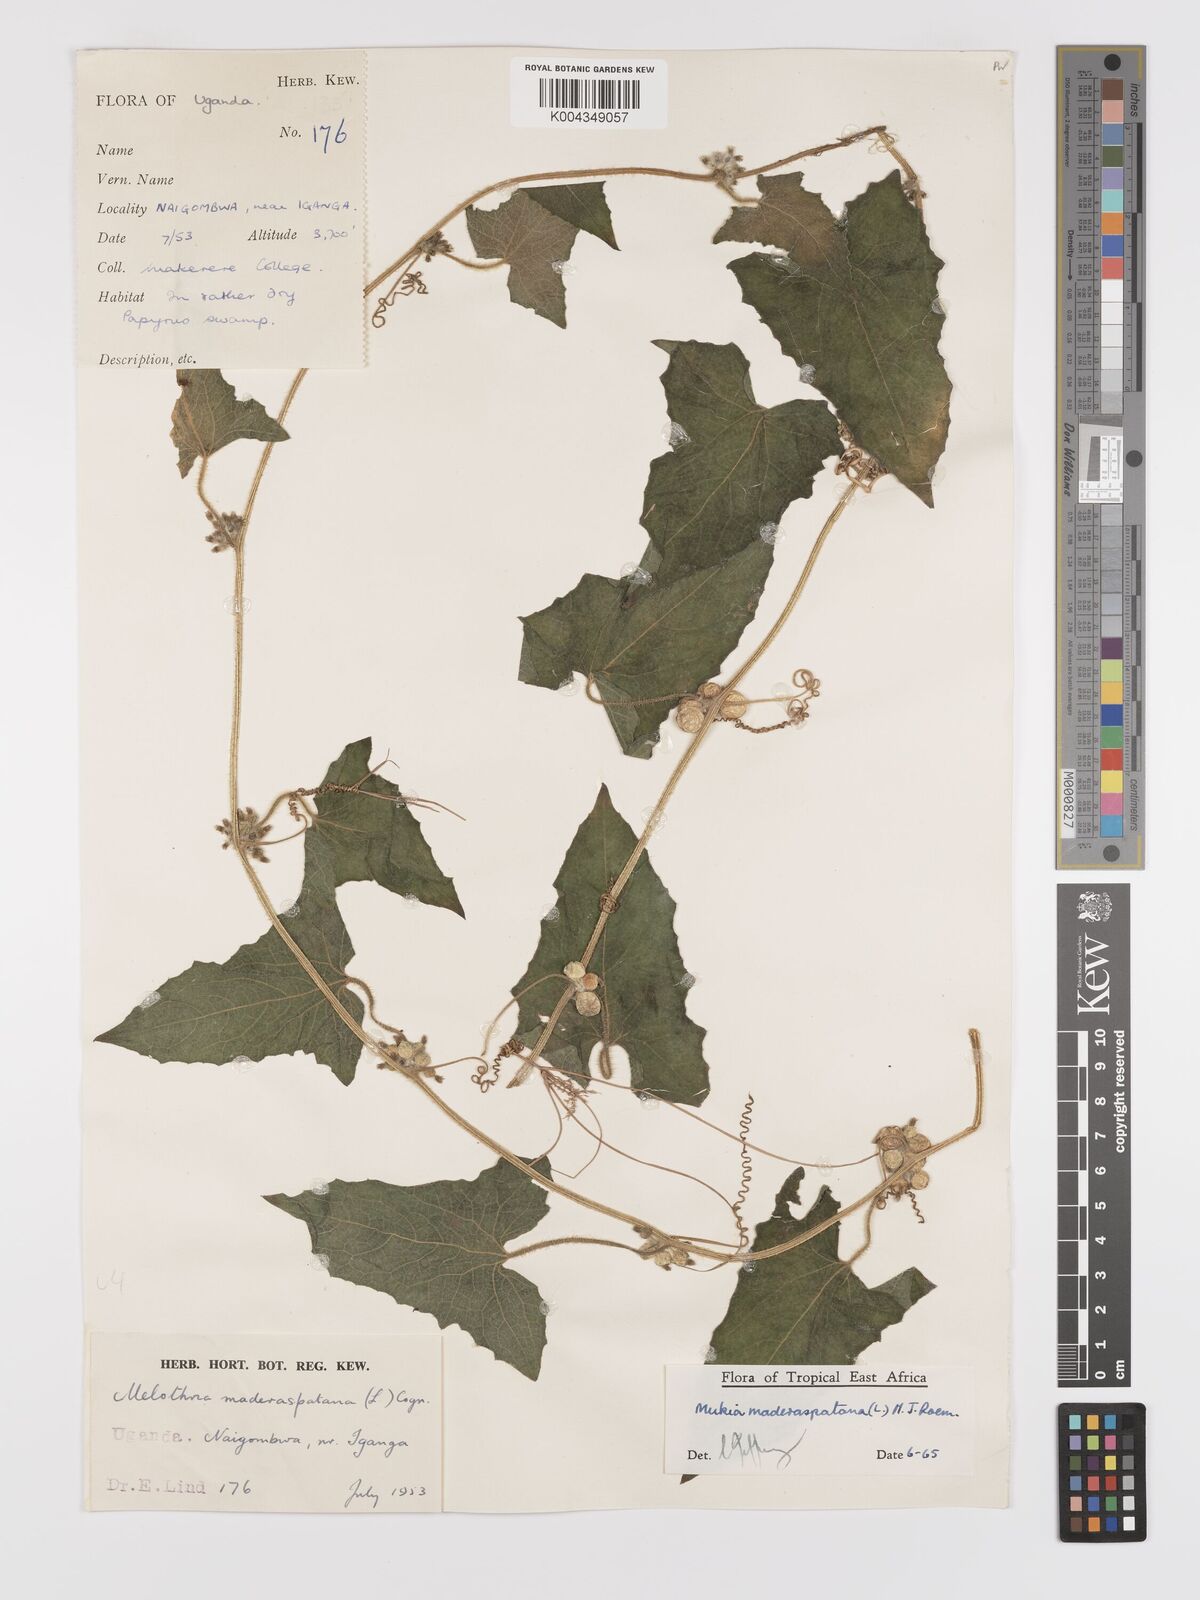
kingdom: Plantae
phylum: Tracheophyta
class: Magnoliopsida
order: Cucurbitales
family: Cucurbitaceae
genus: Cucumis
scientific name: Cucumis maderaspatanus
